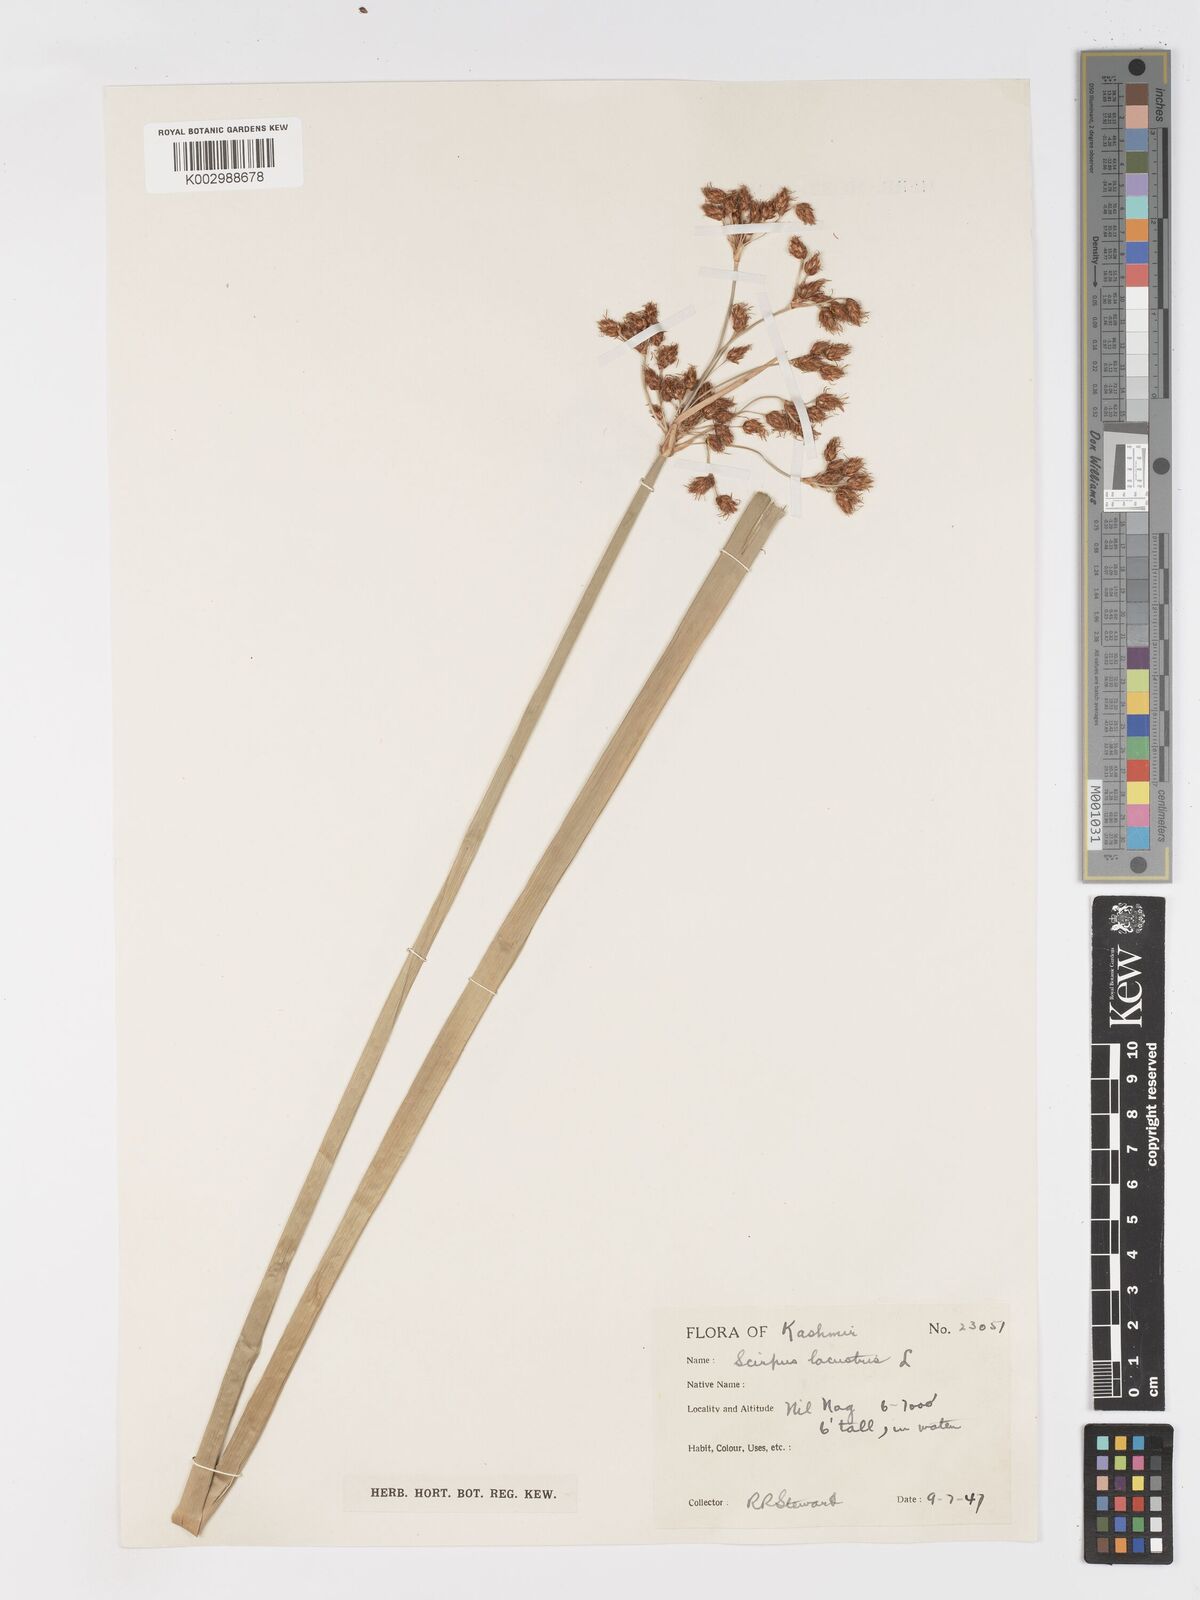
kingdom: Plantae
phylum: Tracheophyta
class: Liliopsida
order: Poales
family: Cyperaceae
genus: Schoenoplectus
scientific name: Schoenoplectus lacustris
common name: Common club-rush
